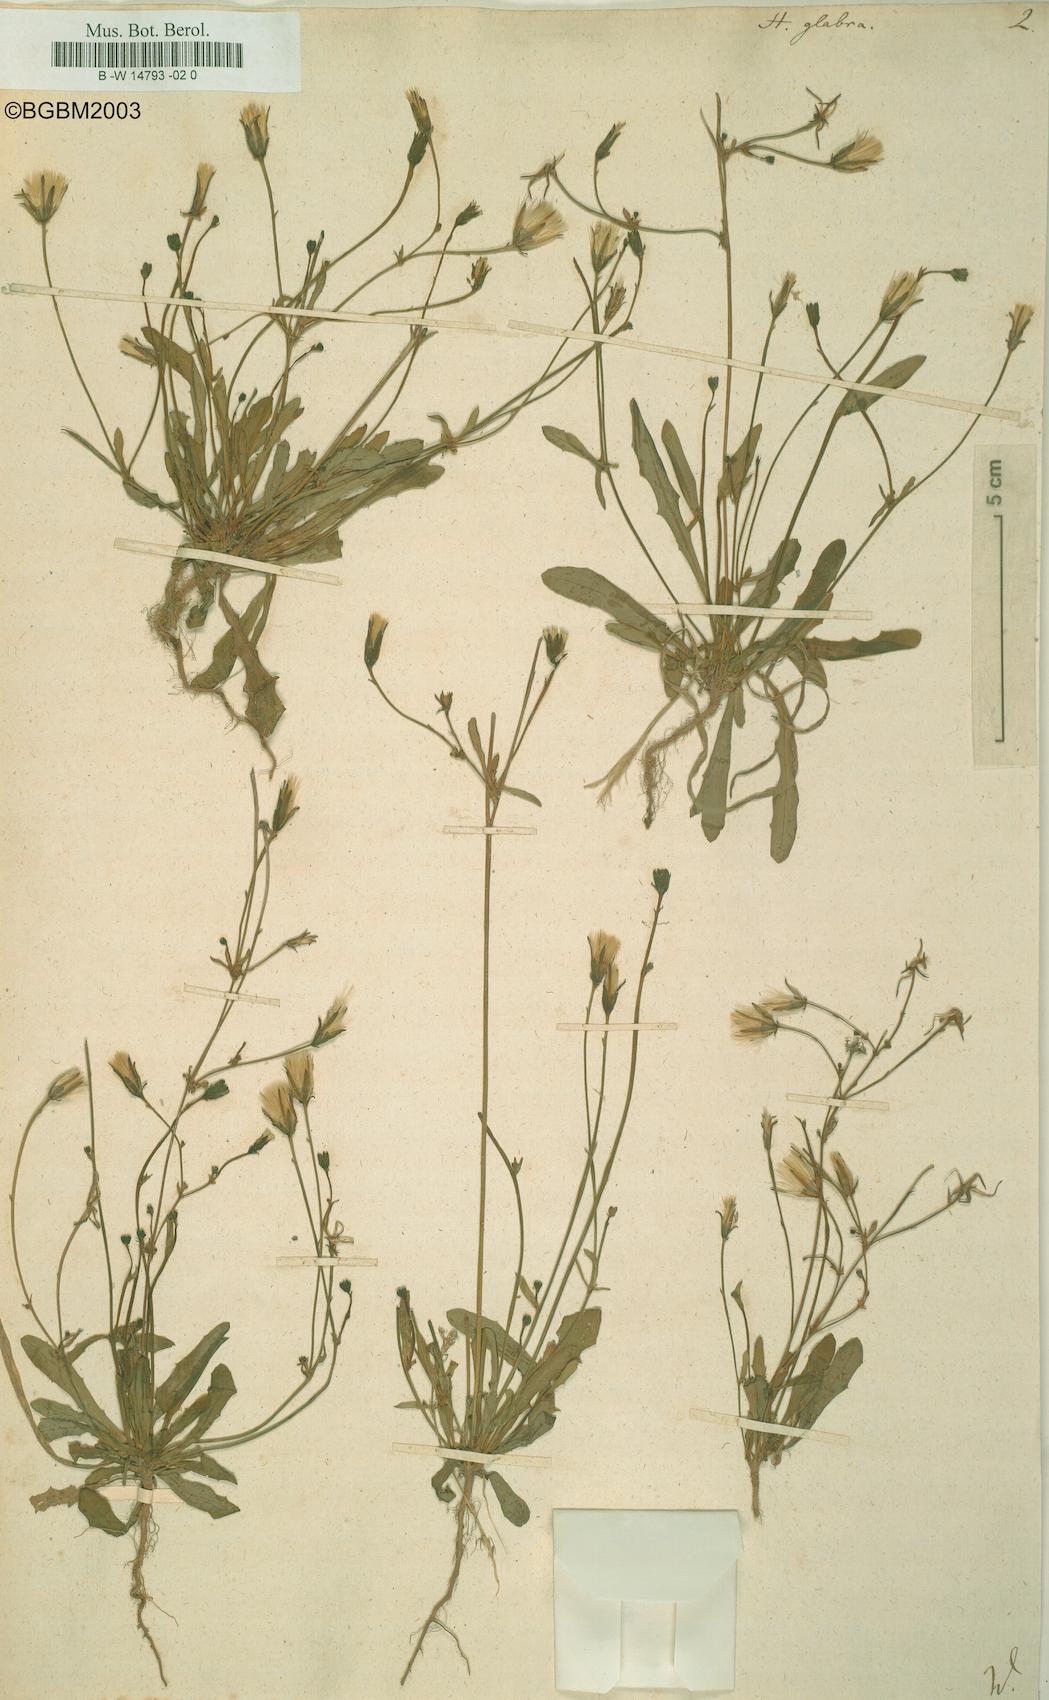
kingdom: Plantae
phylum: Tracheophyta
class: Magnoliopsida
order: Asterales
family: Asteraceae
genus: Hypochaeris
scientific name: Hypochaeris glabra
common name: Smooth catsear
